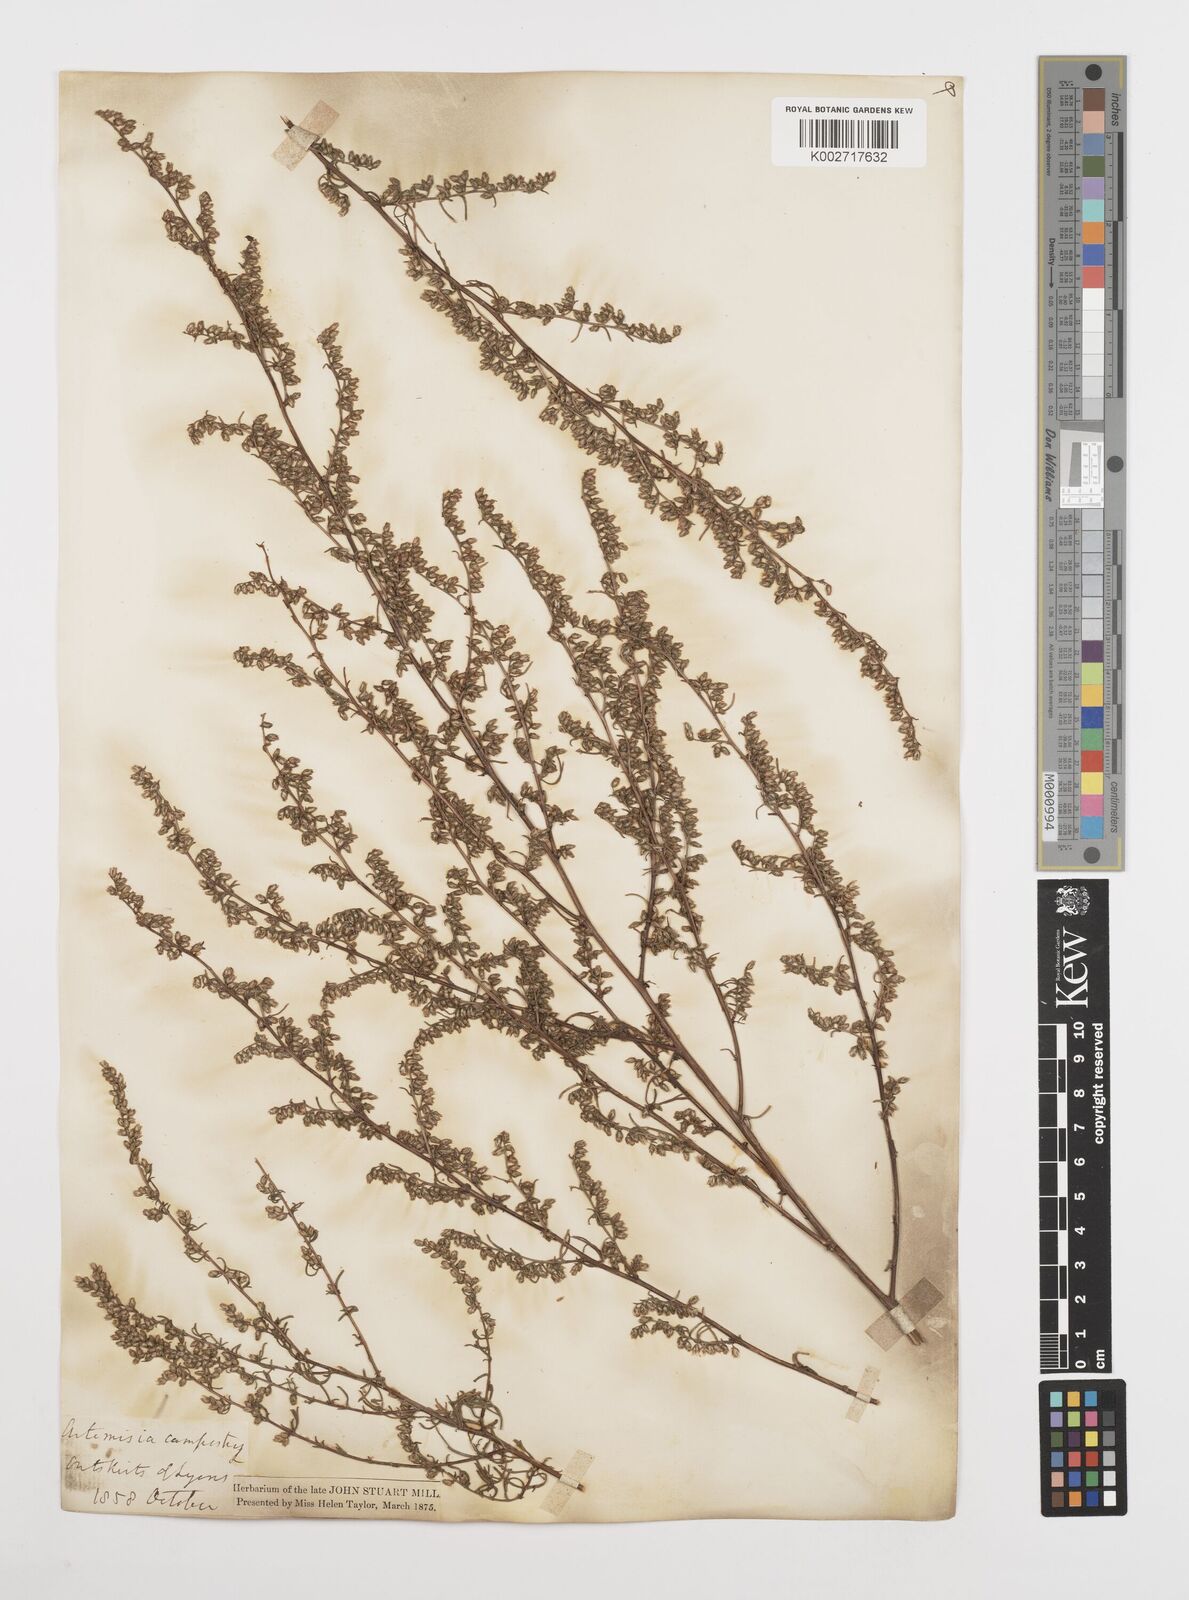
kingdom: Plantae
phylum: Tracheophyta
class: Magnoliopsida
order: Asterales
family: Asteraceae
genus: Artemisia
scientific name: Artemisia campestris
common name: Field wormwood
